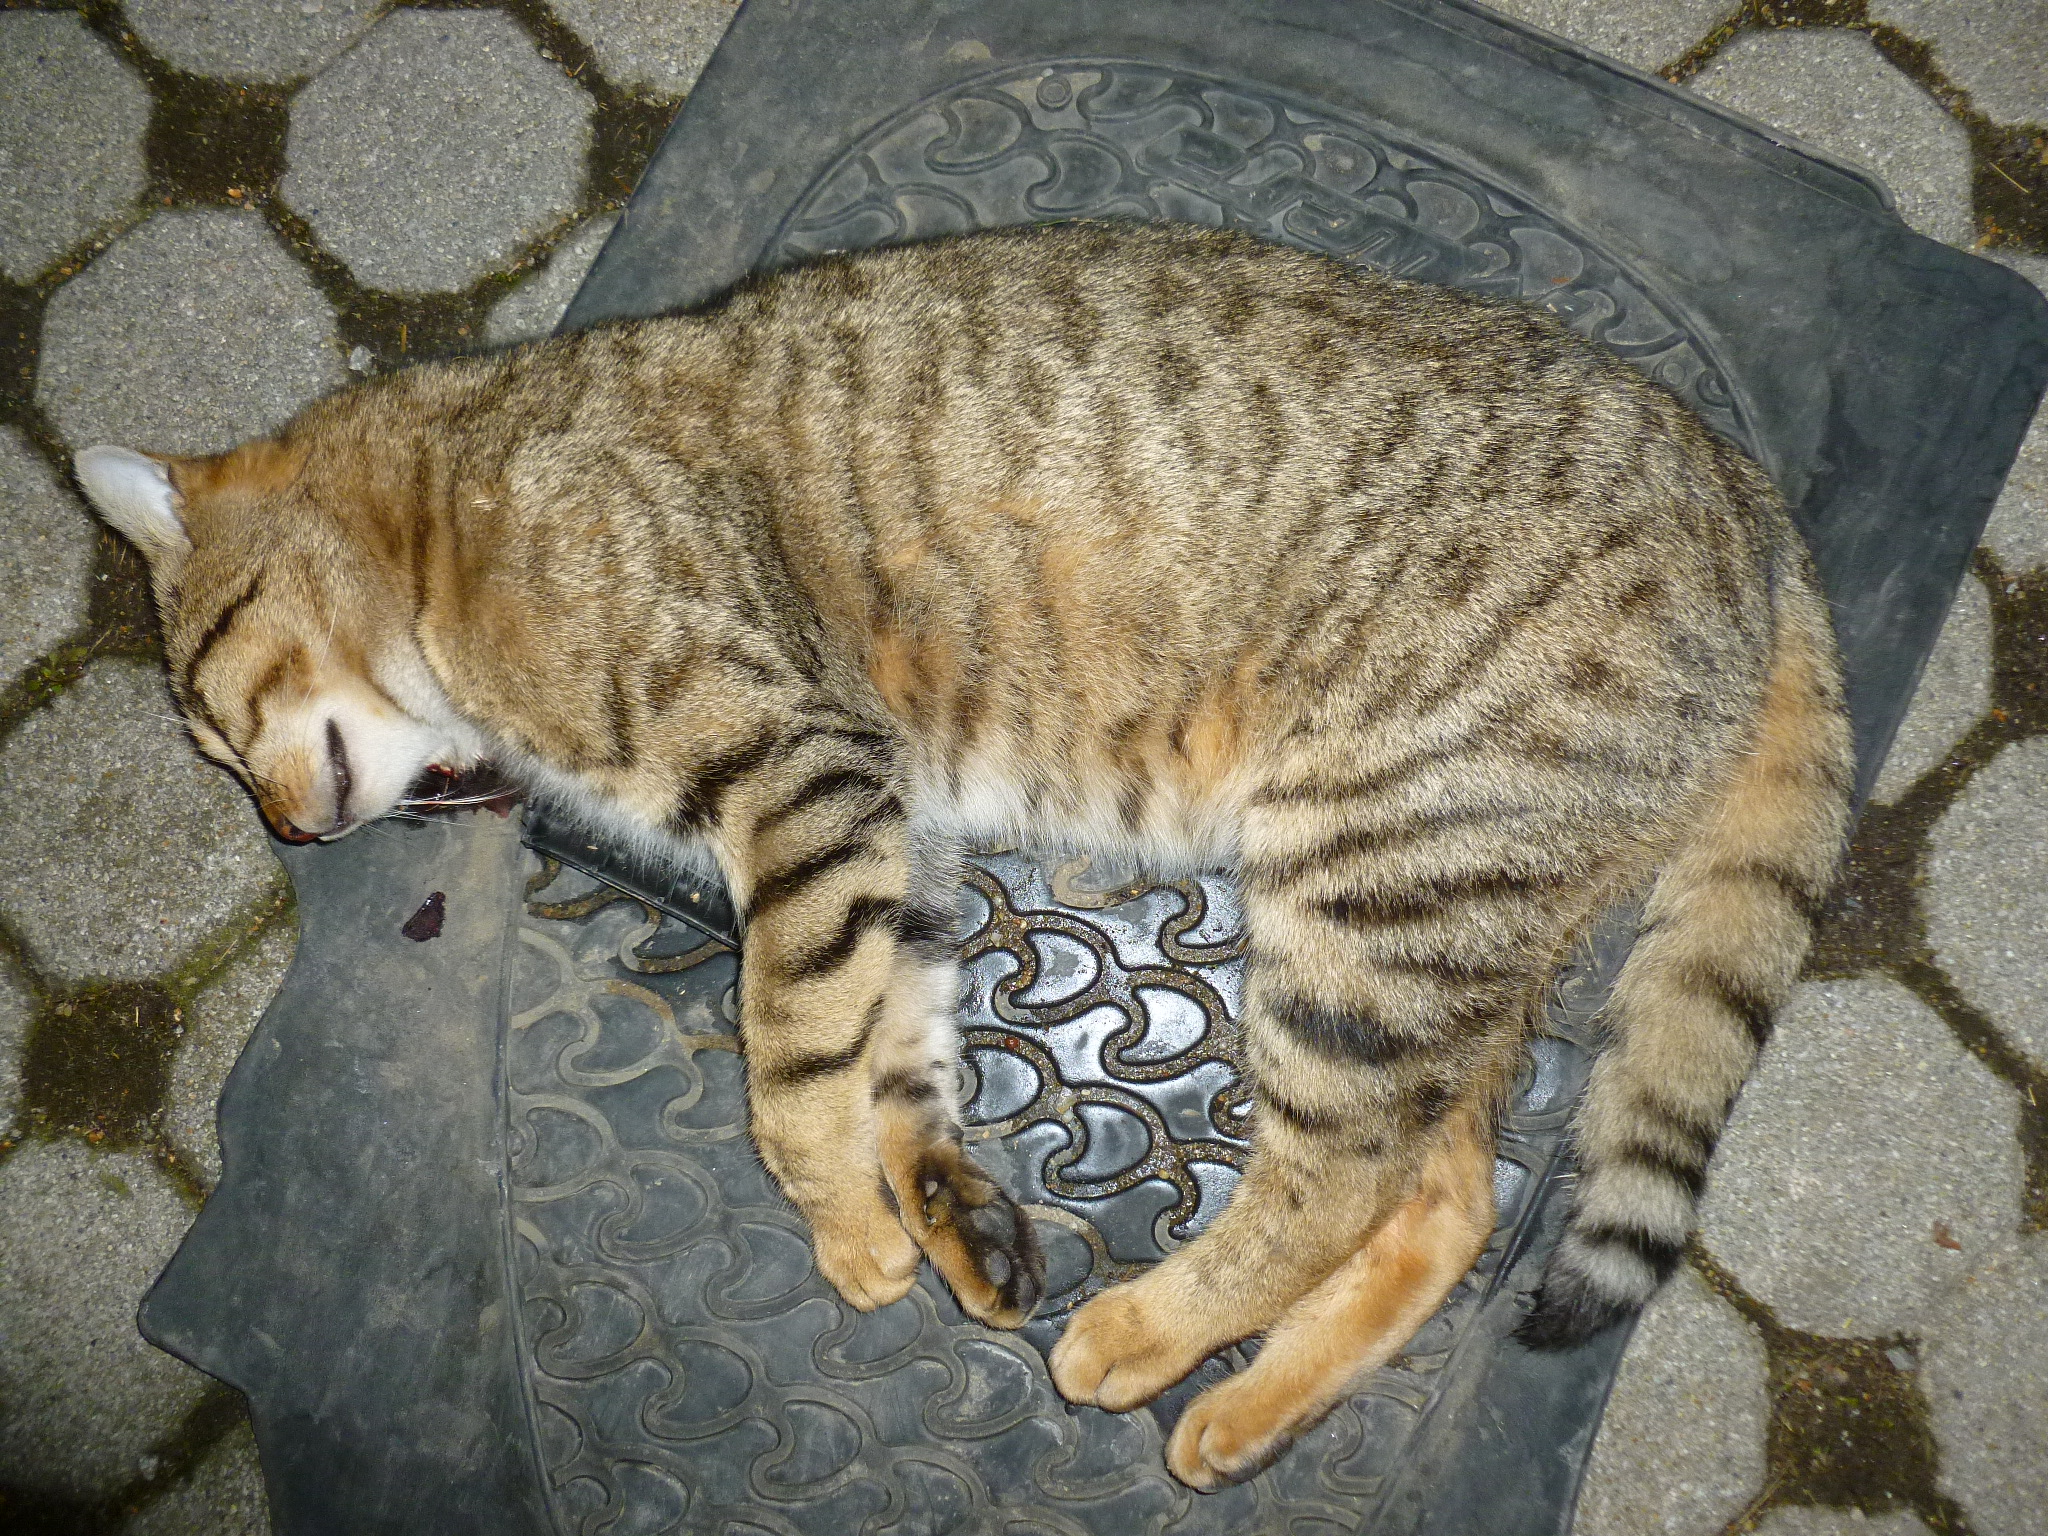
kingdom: Animalia
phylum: Chordata
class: Mammalia
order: Carnivora
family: Felidae
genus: Felis
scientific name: Felis catus
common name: Domestic cat
